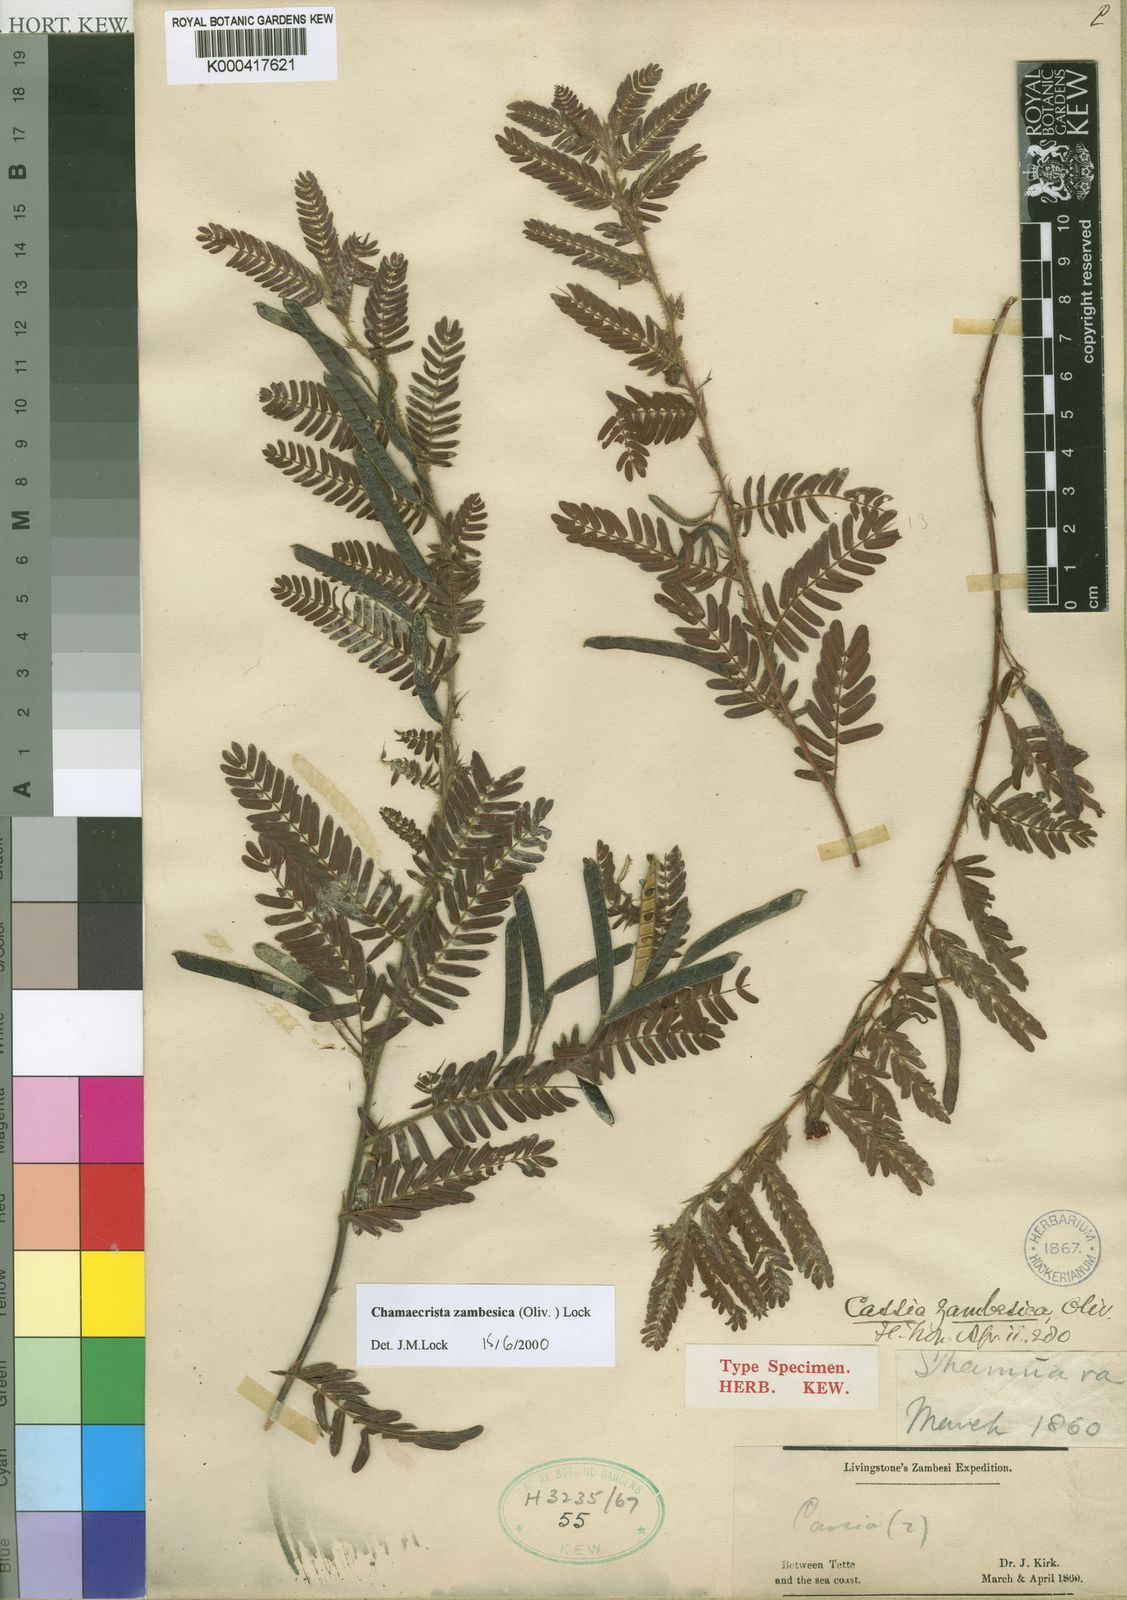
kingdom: Plantae
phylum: Tracheophyta
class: Magnoliopsida
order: Fabales
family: Fabaceae
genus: Chamaecrista
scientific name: Chamaecrista zambesica
